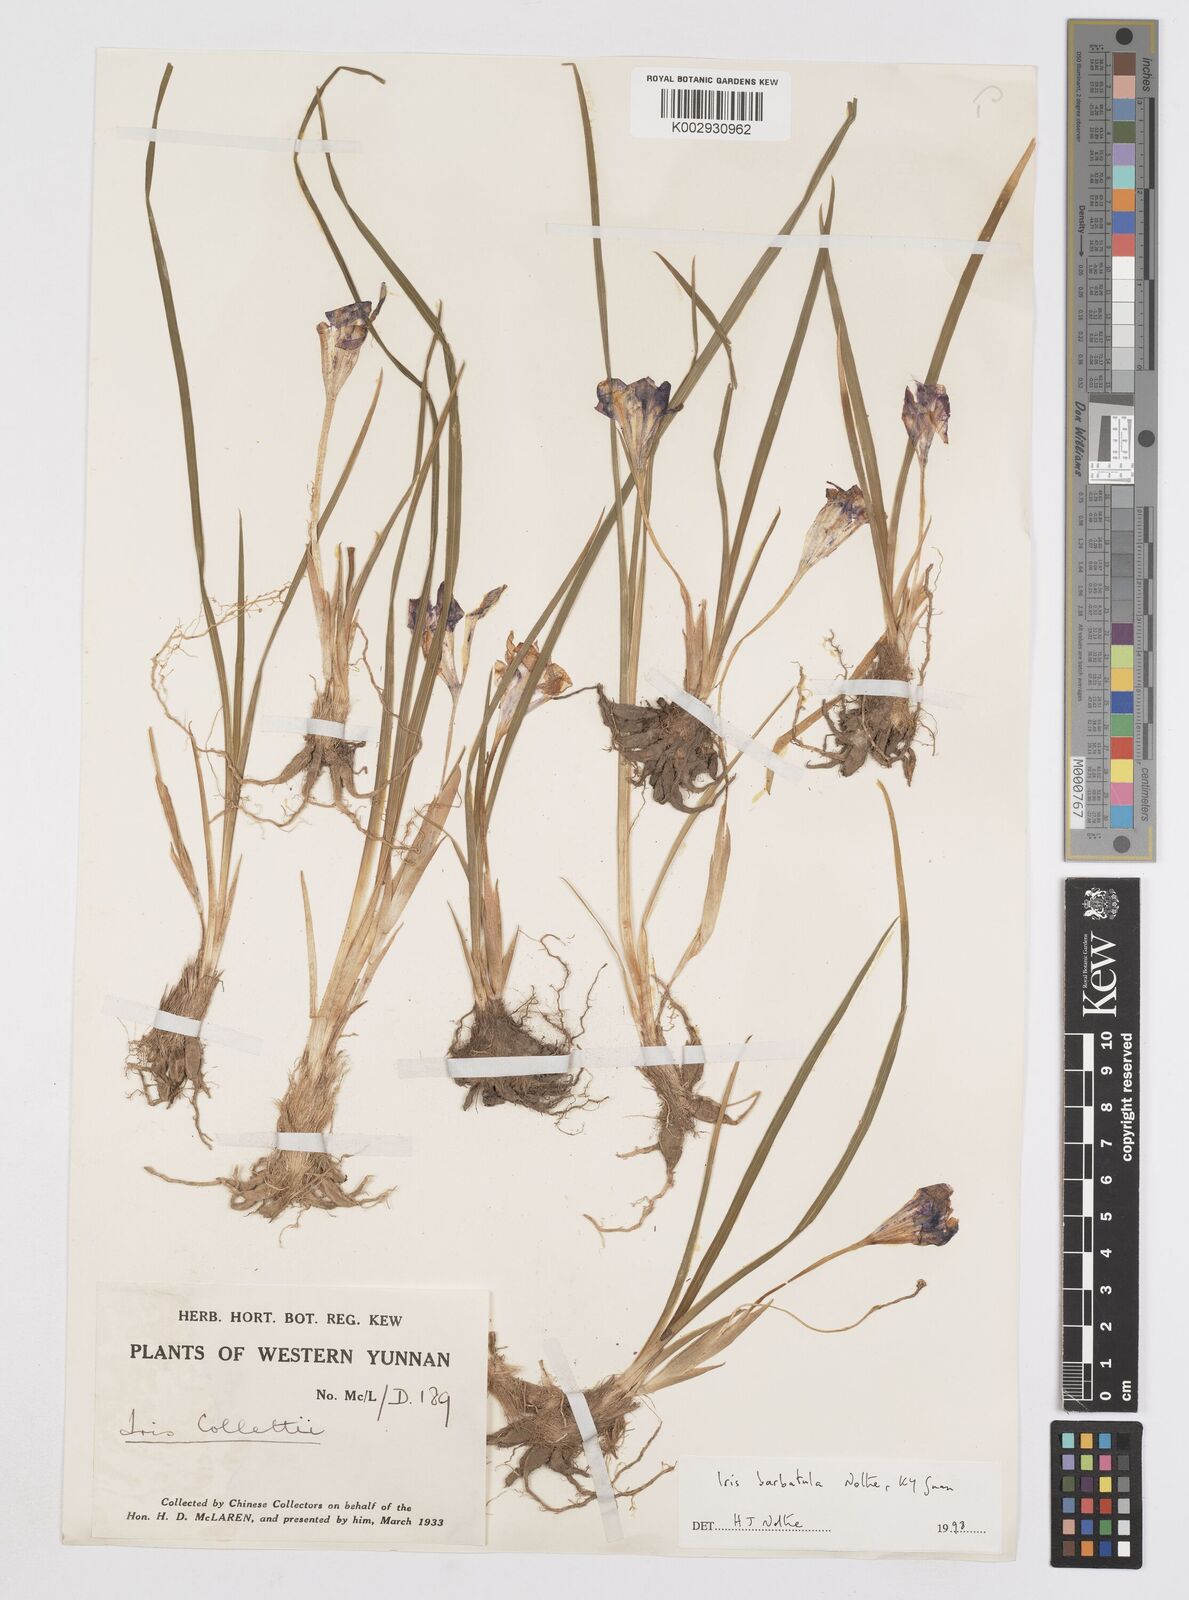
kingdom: Plantae
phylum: Tracheophyta
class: Liliopsida
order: Asparagales
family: Iridaceae
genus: Iris
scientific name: Iris barbatula
